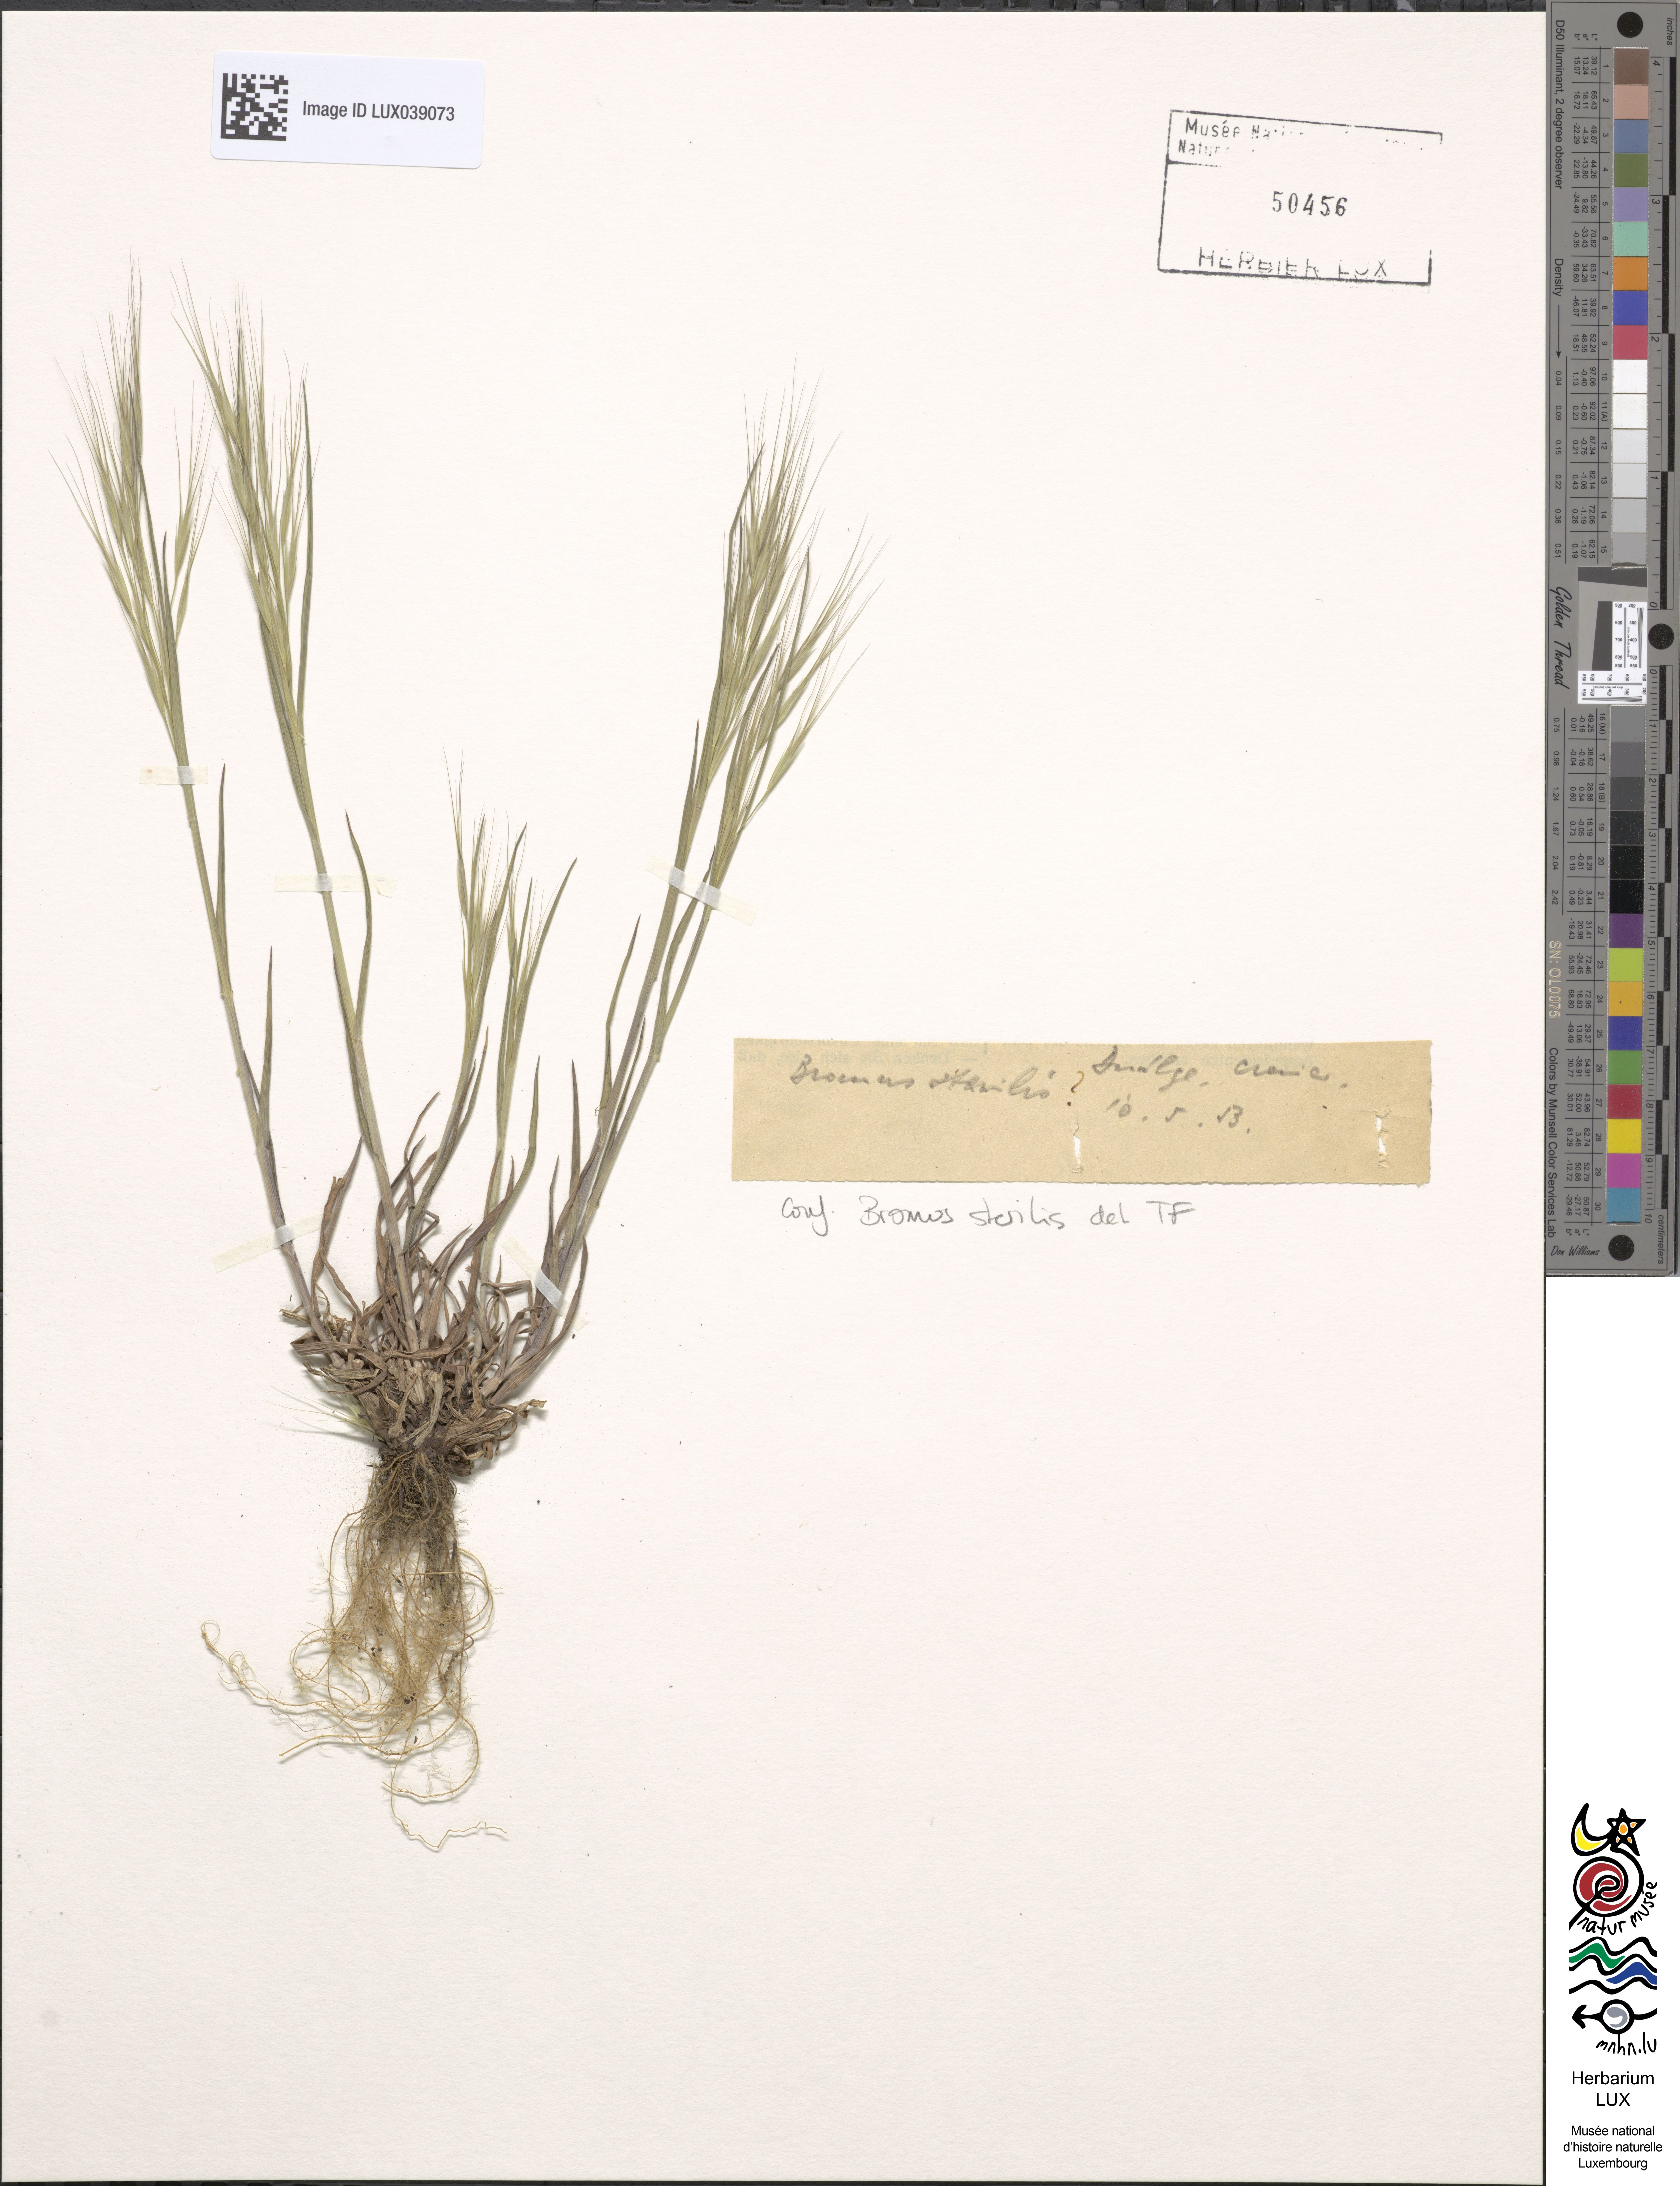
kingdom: Plantae
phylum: Tracheophyta
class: Liliopsida
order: Poales
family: Poaceae
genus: Bromus
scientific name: Bromus sterilis
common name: Poverty brome
